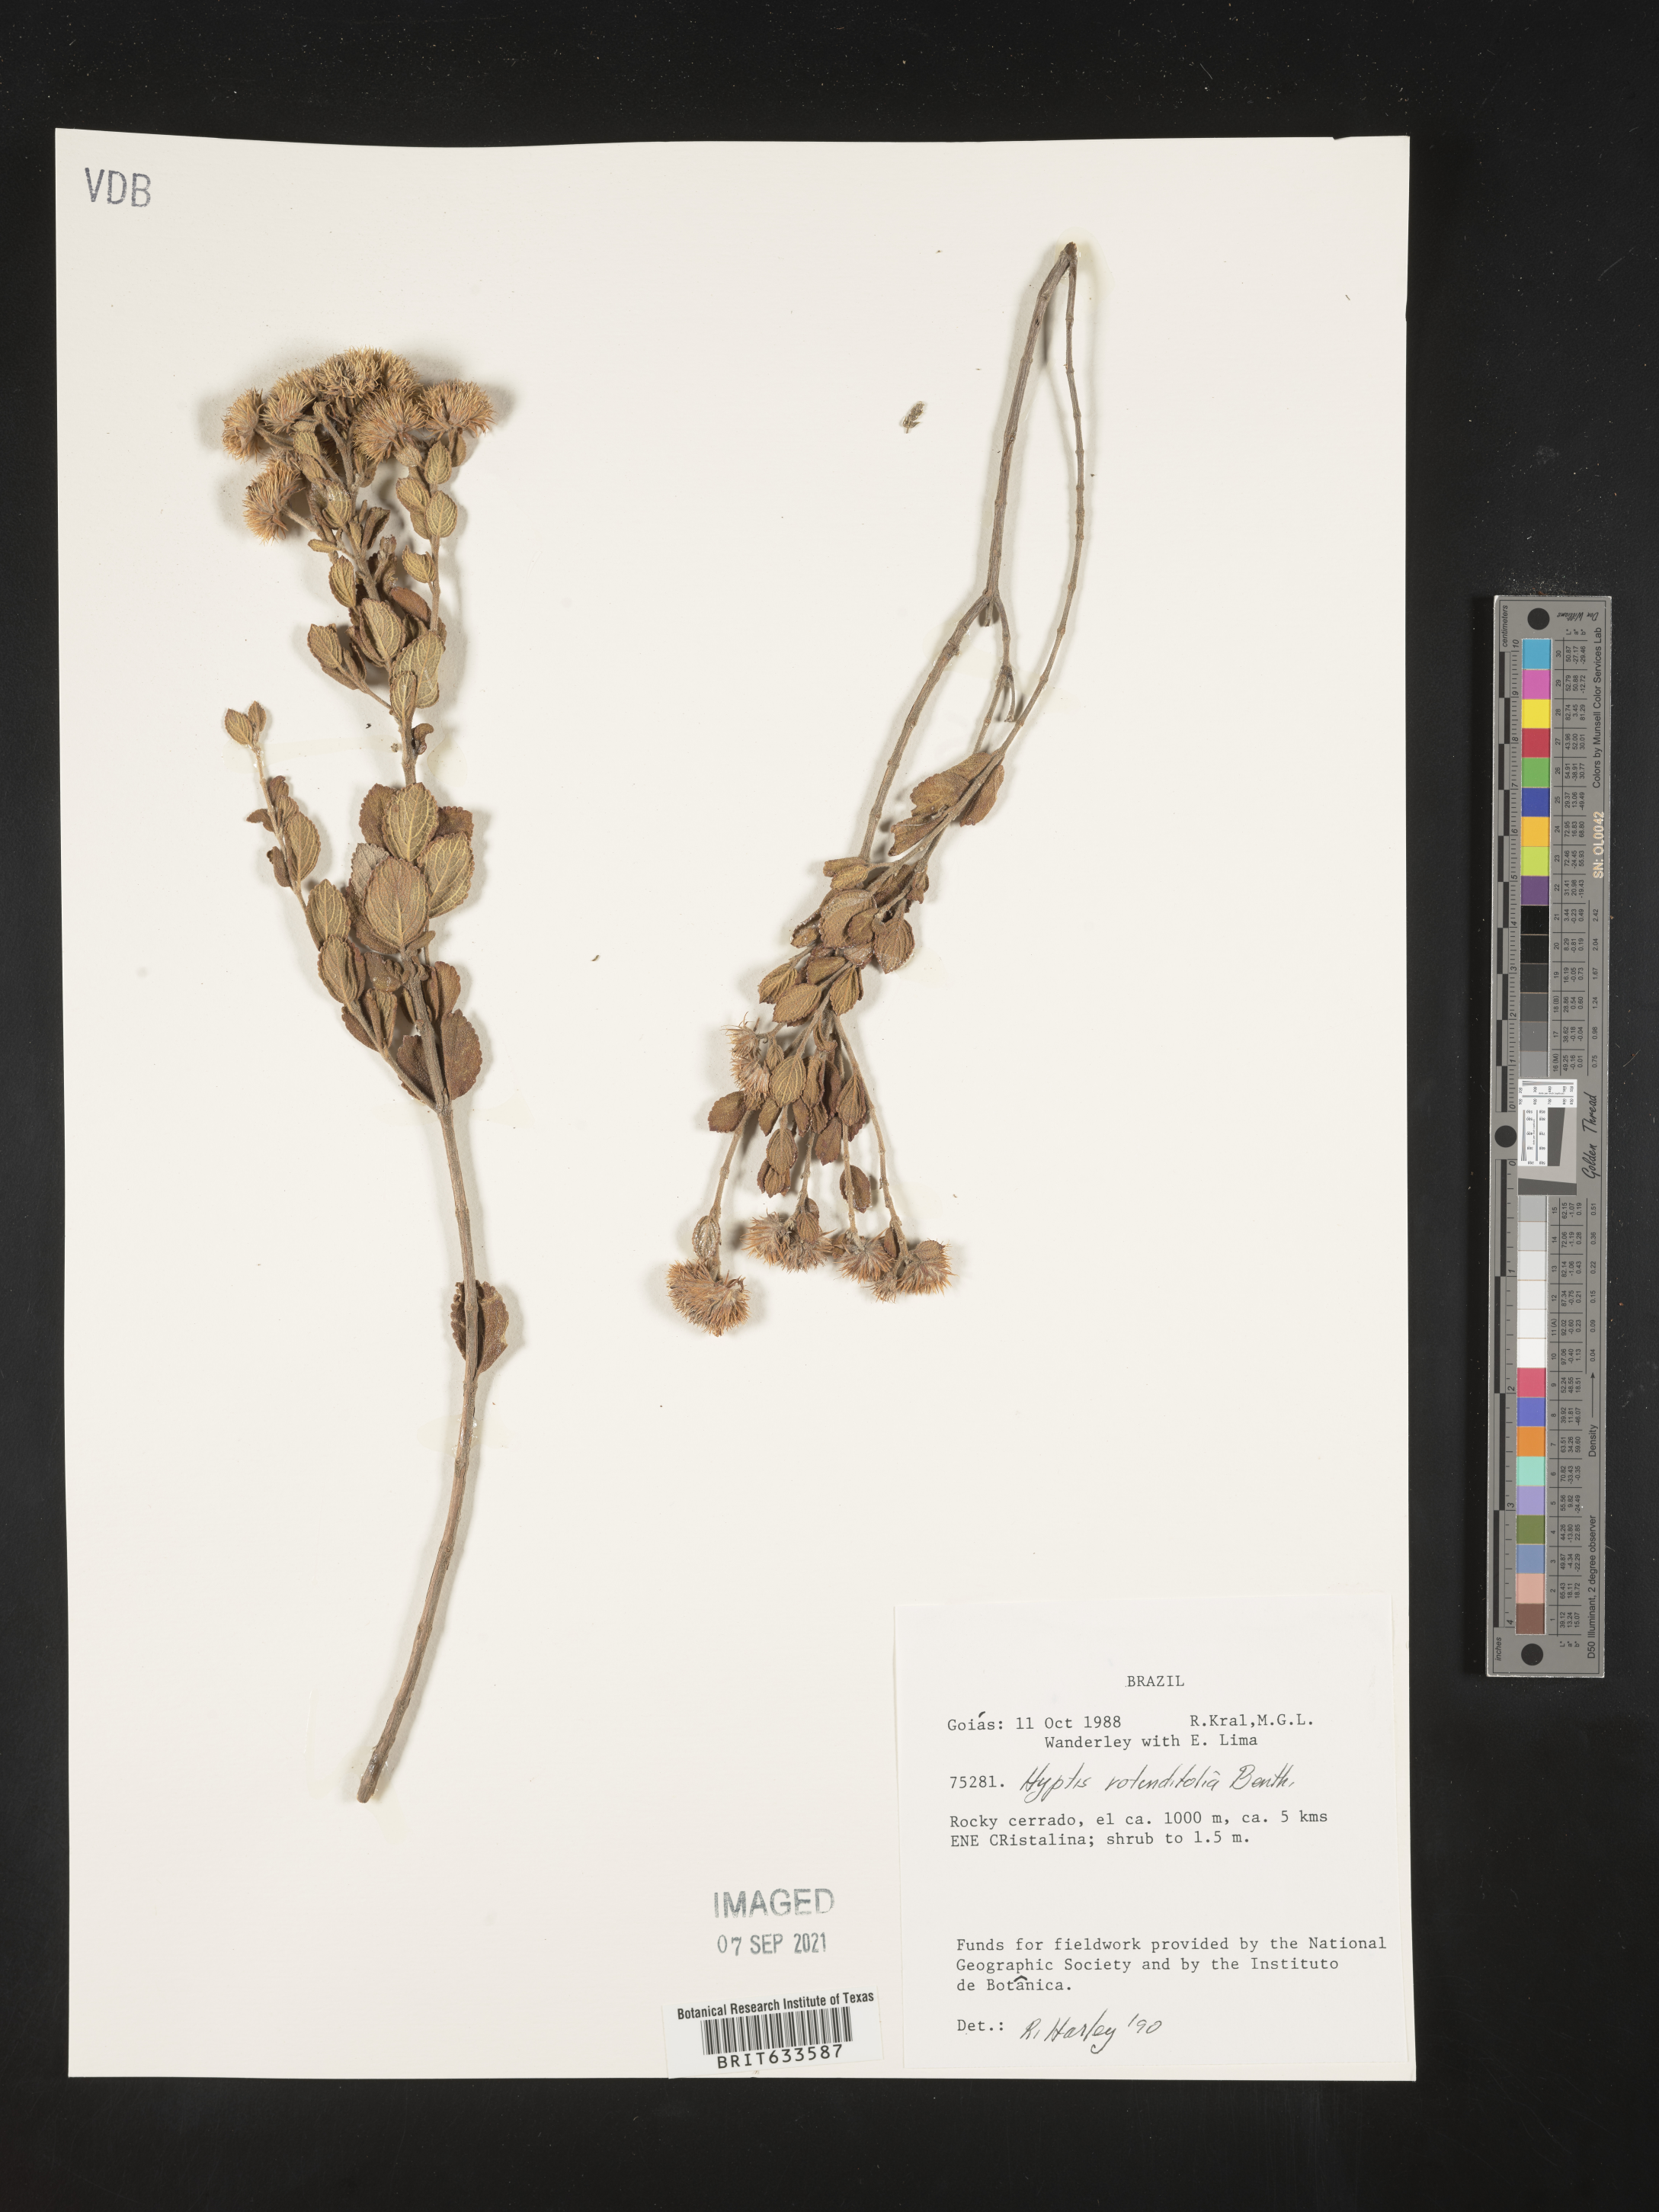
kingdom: Plantae
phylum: Tracheophyta
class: Magnoliopsida
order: Lamiales
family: Lamiaceae
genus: Hyptis
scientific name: Hyptis
